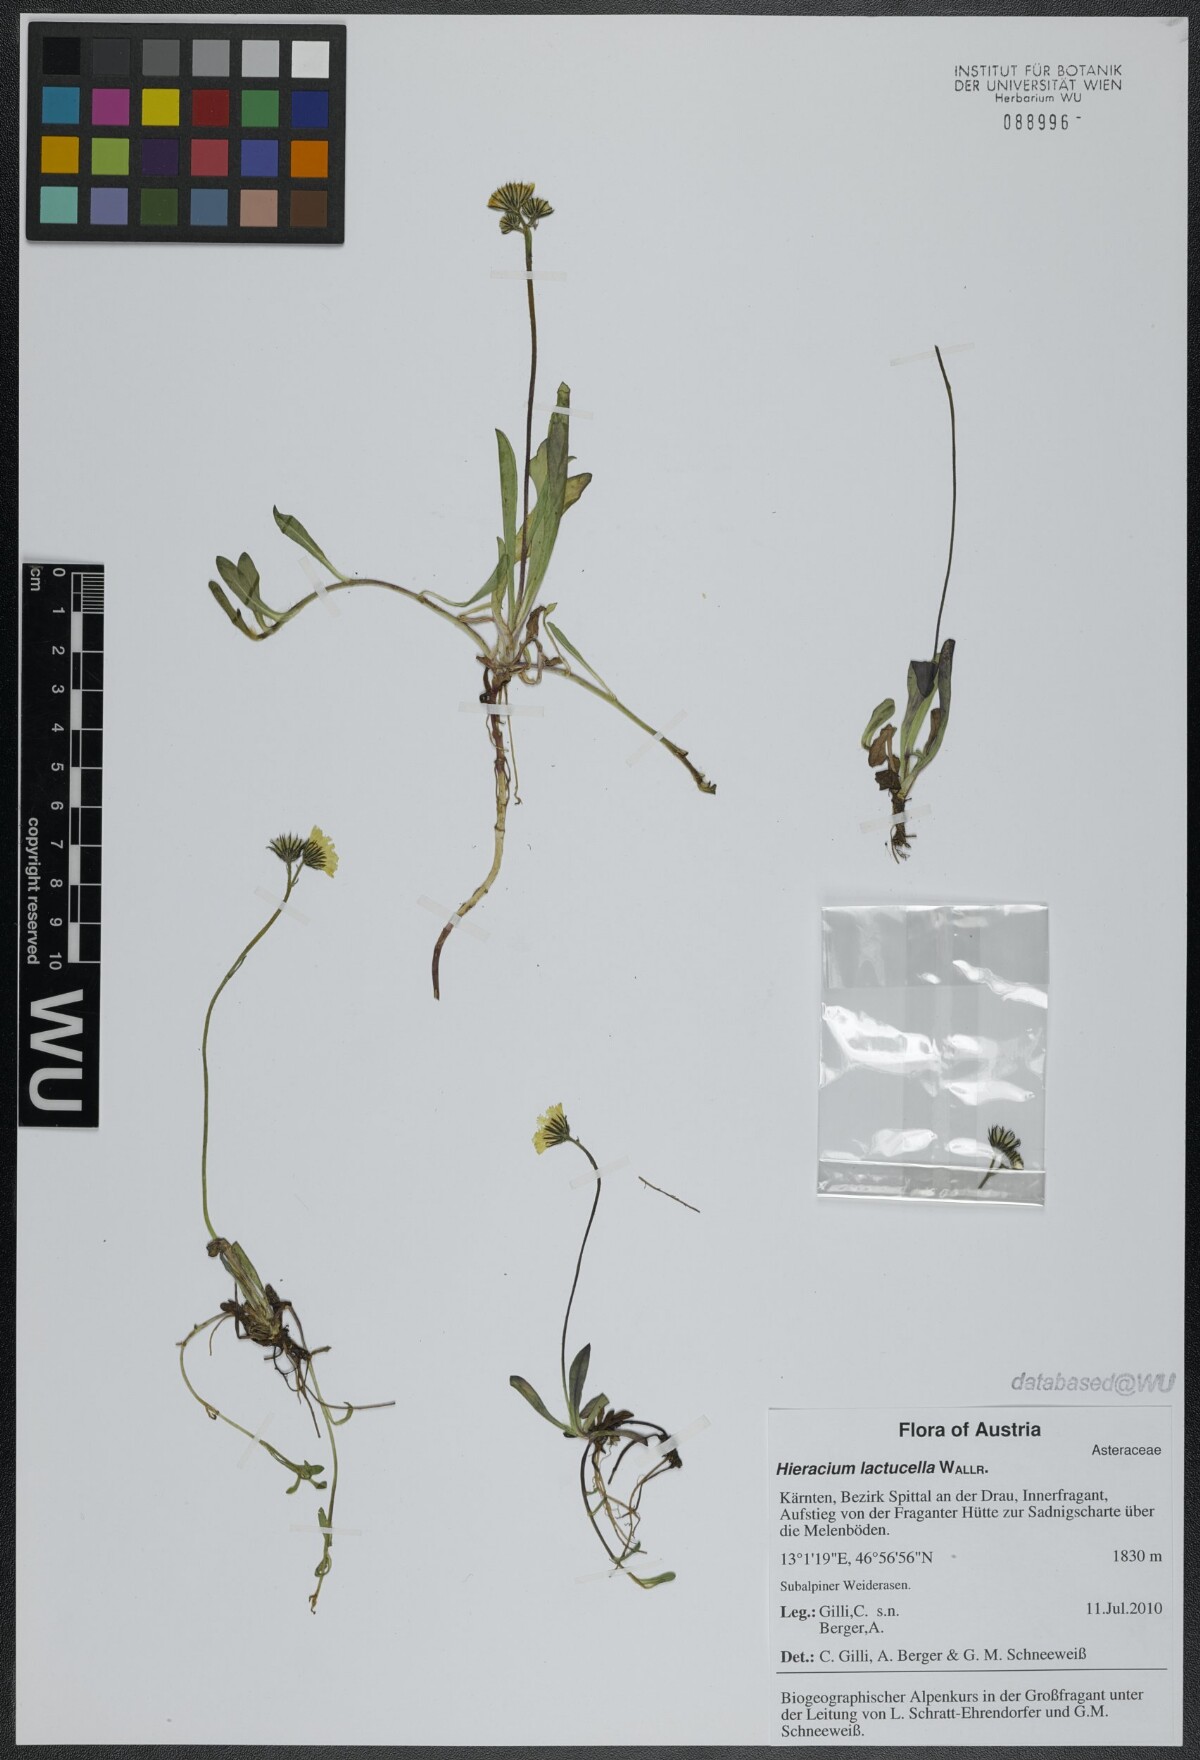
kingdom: Plantae
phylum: Tracheophyta
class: Magnoliopsida
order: Asterales
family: Asteraceae
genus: Pilosella
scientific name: Pilosella lactucella
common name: Glaucous fox-and-cubs
